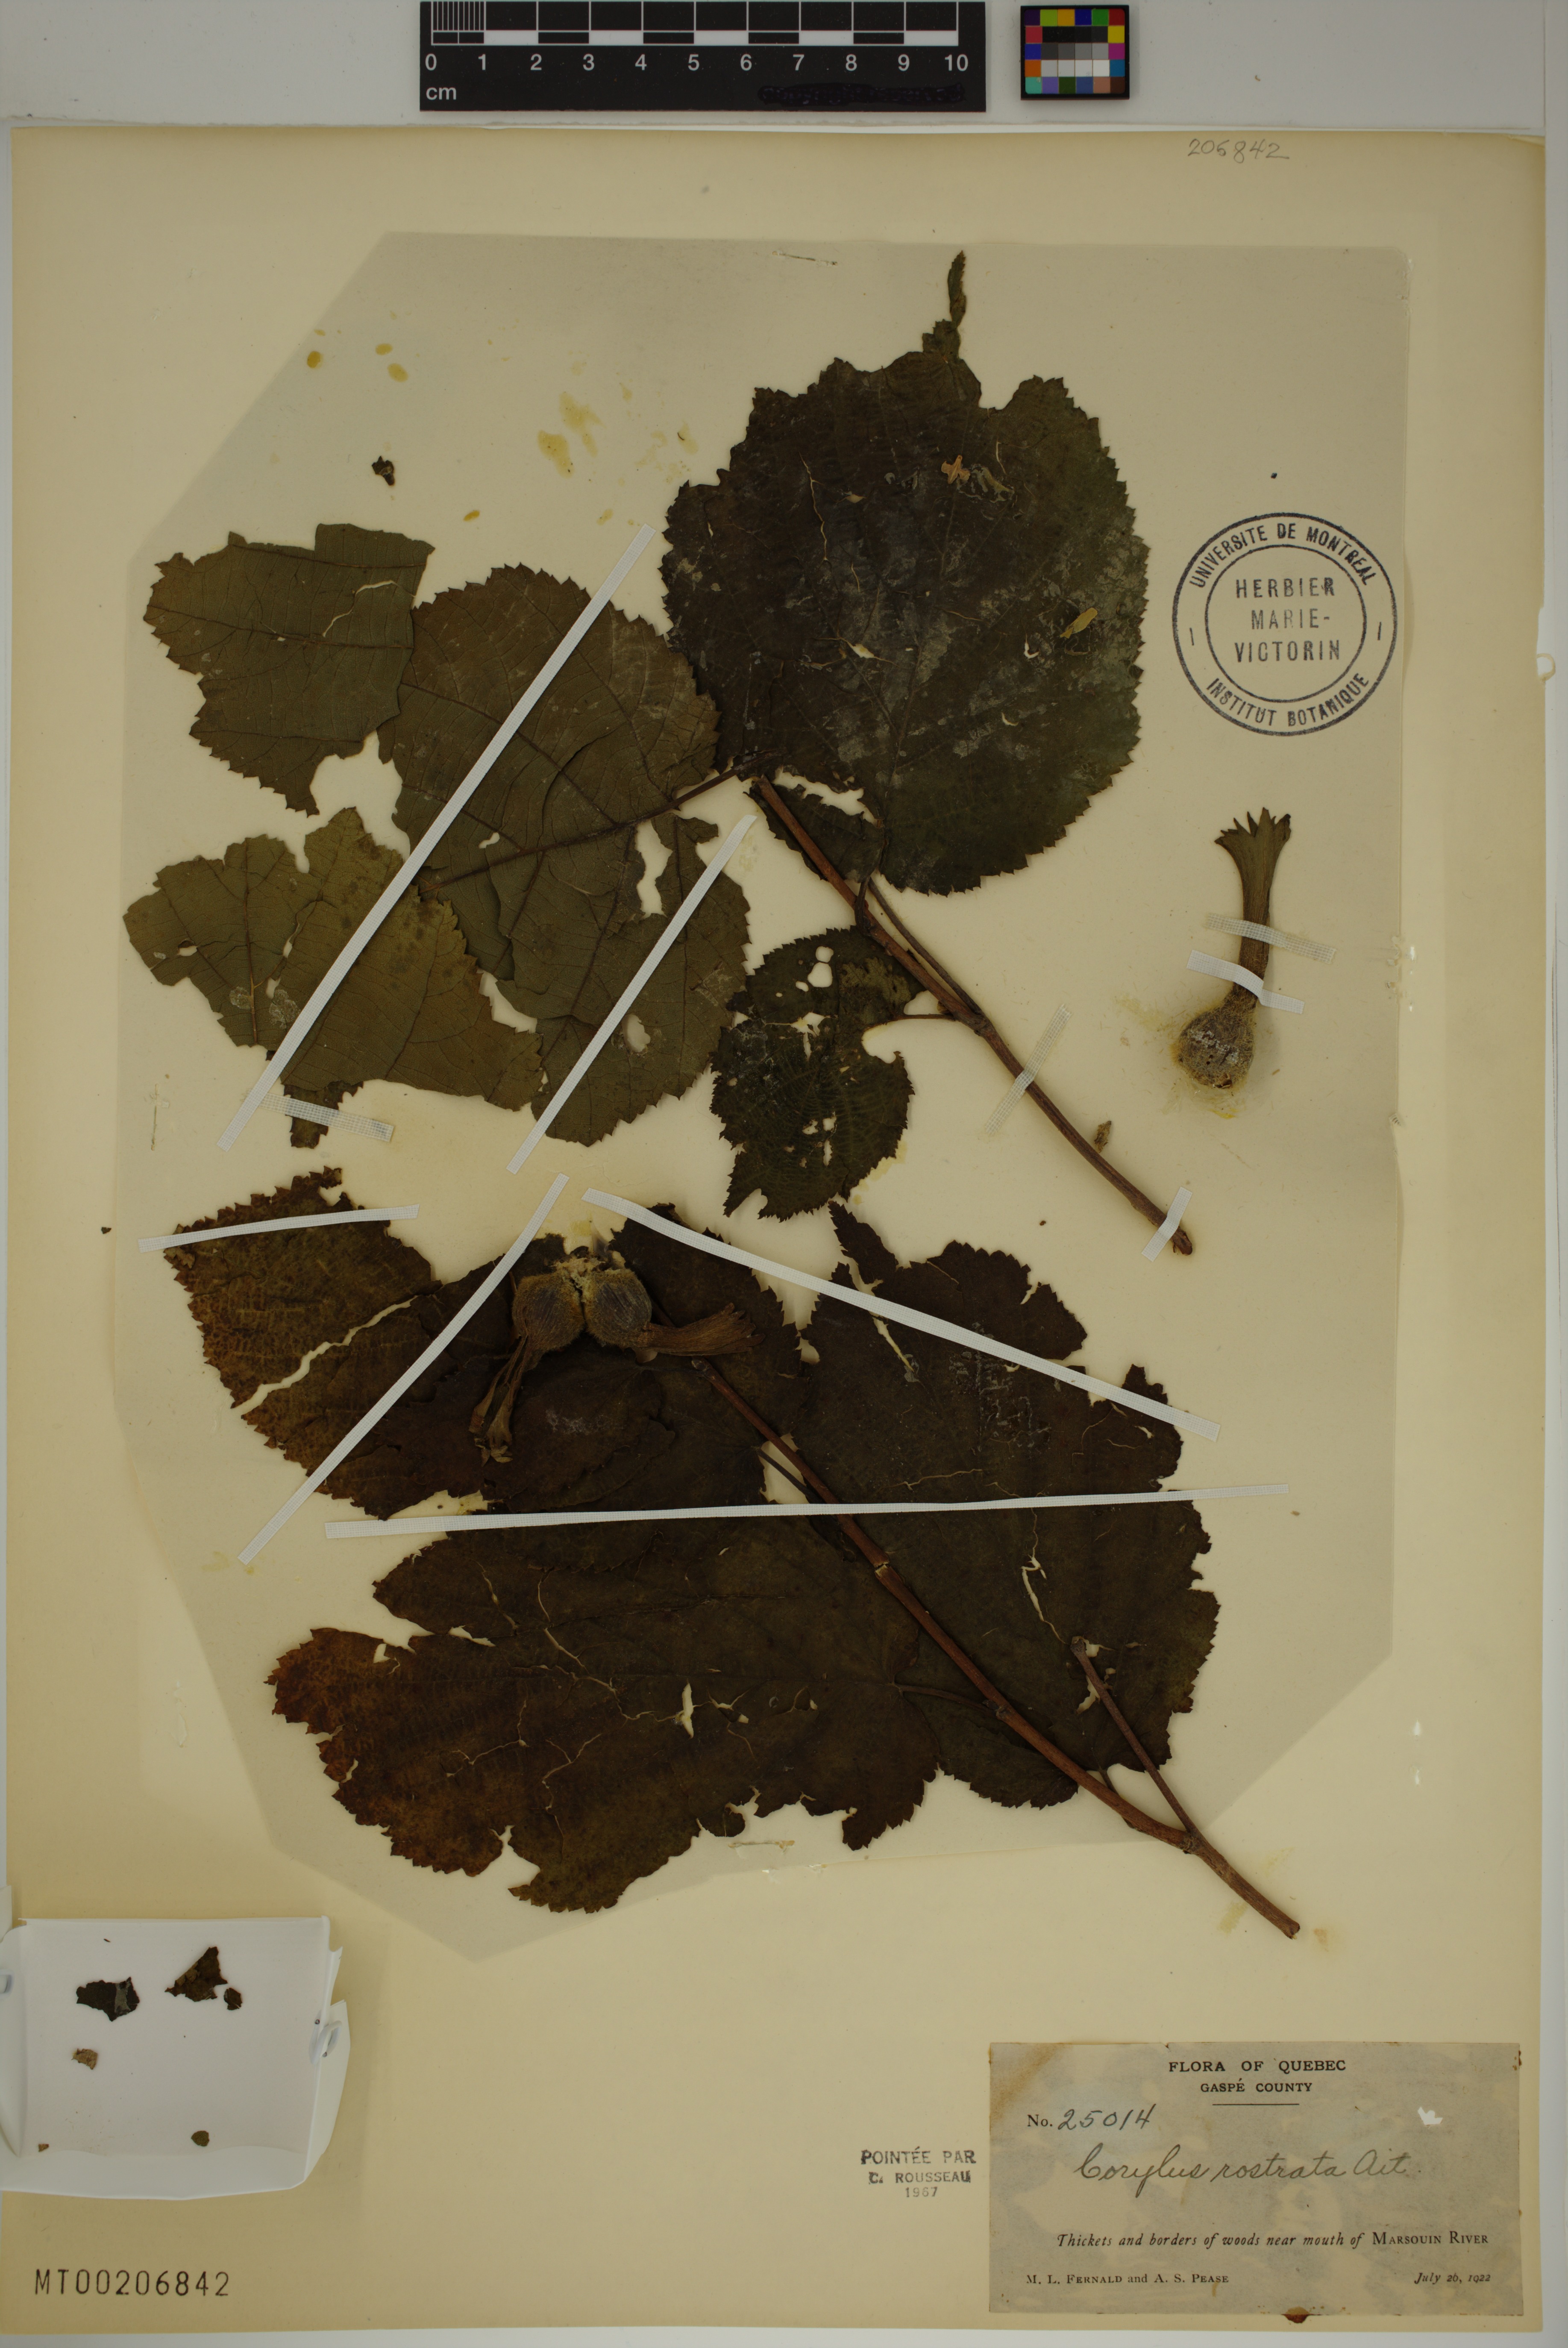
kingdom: Plantae
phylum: Tracheophyta
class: Magnoliopsida
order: Fagales
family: Betulaceae
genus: Corylus
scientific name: Corylus cornuta
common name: Beaked hazel
